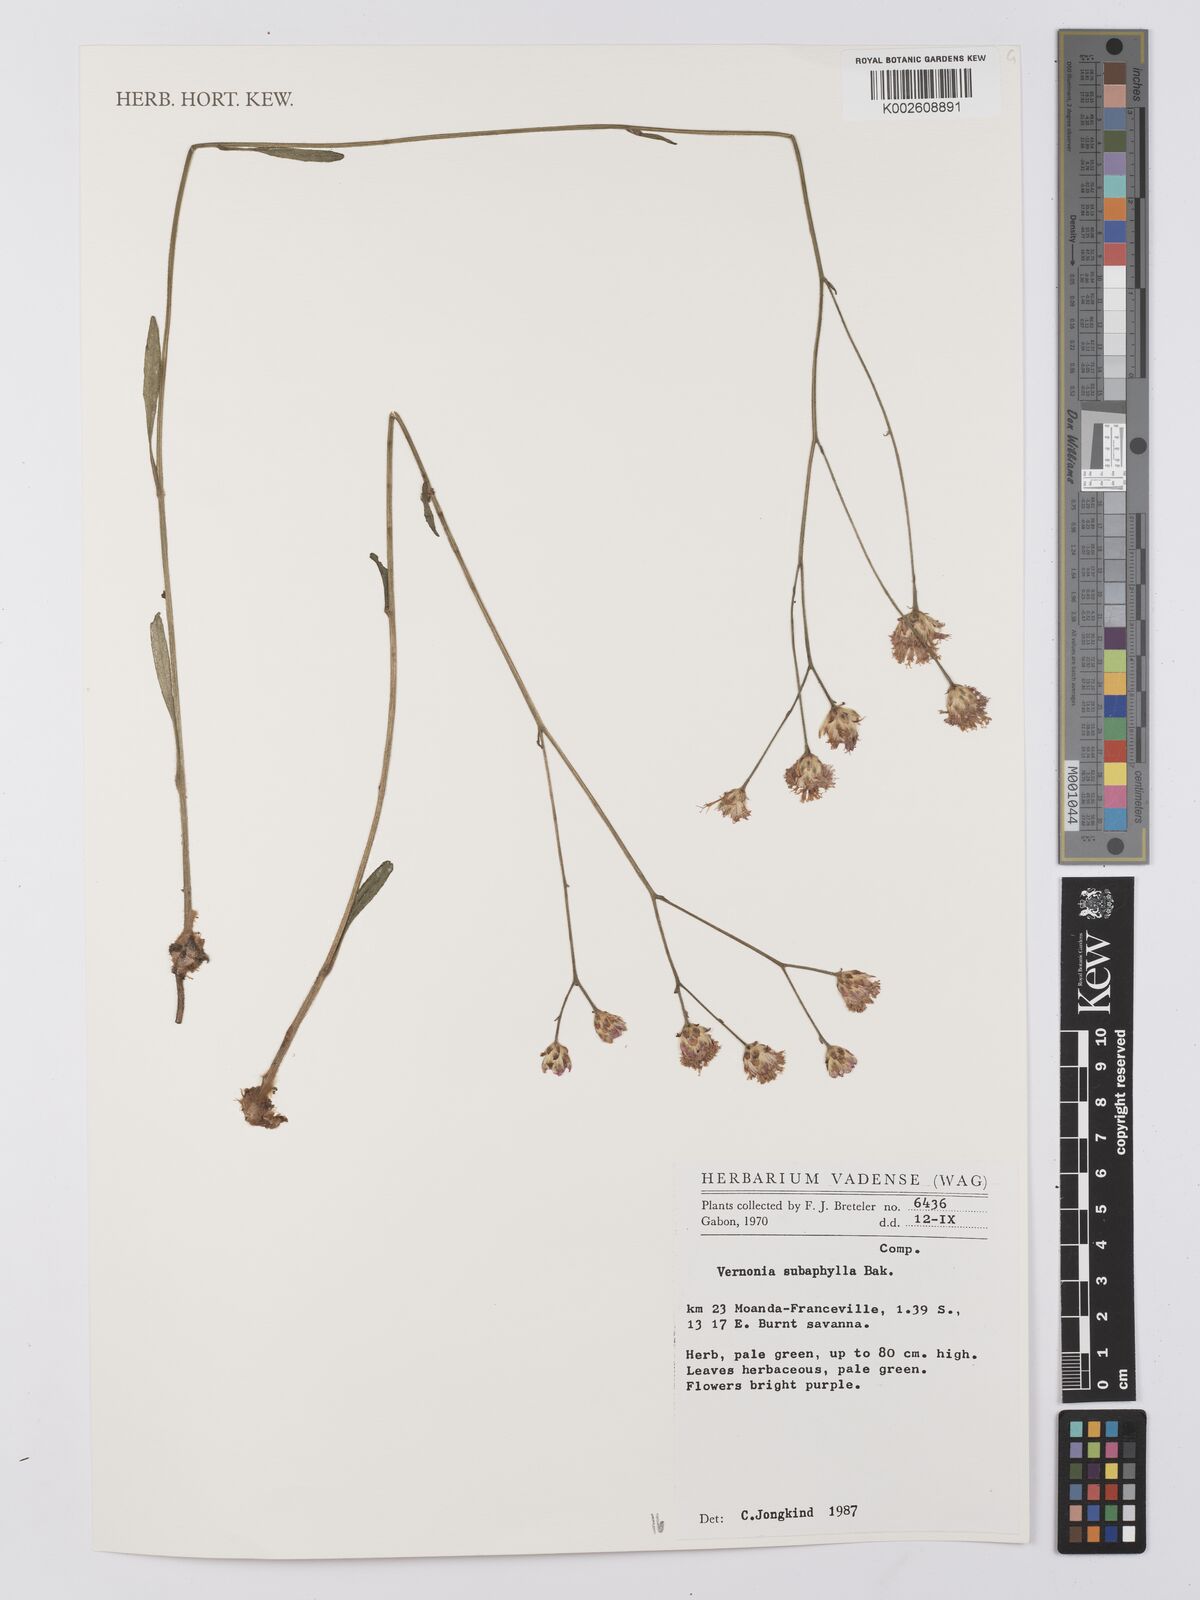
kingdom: Plantae
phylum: Tracheophyta
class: Magnoliopsida
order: Asterales
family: Asteraceae
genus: Vernonella
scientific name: Vernonella subaphylla
